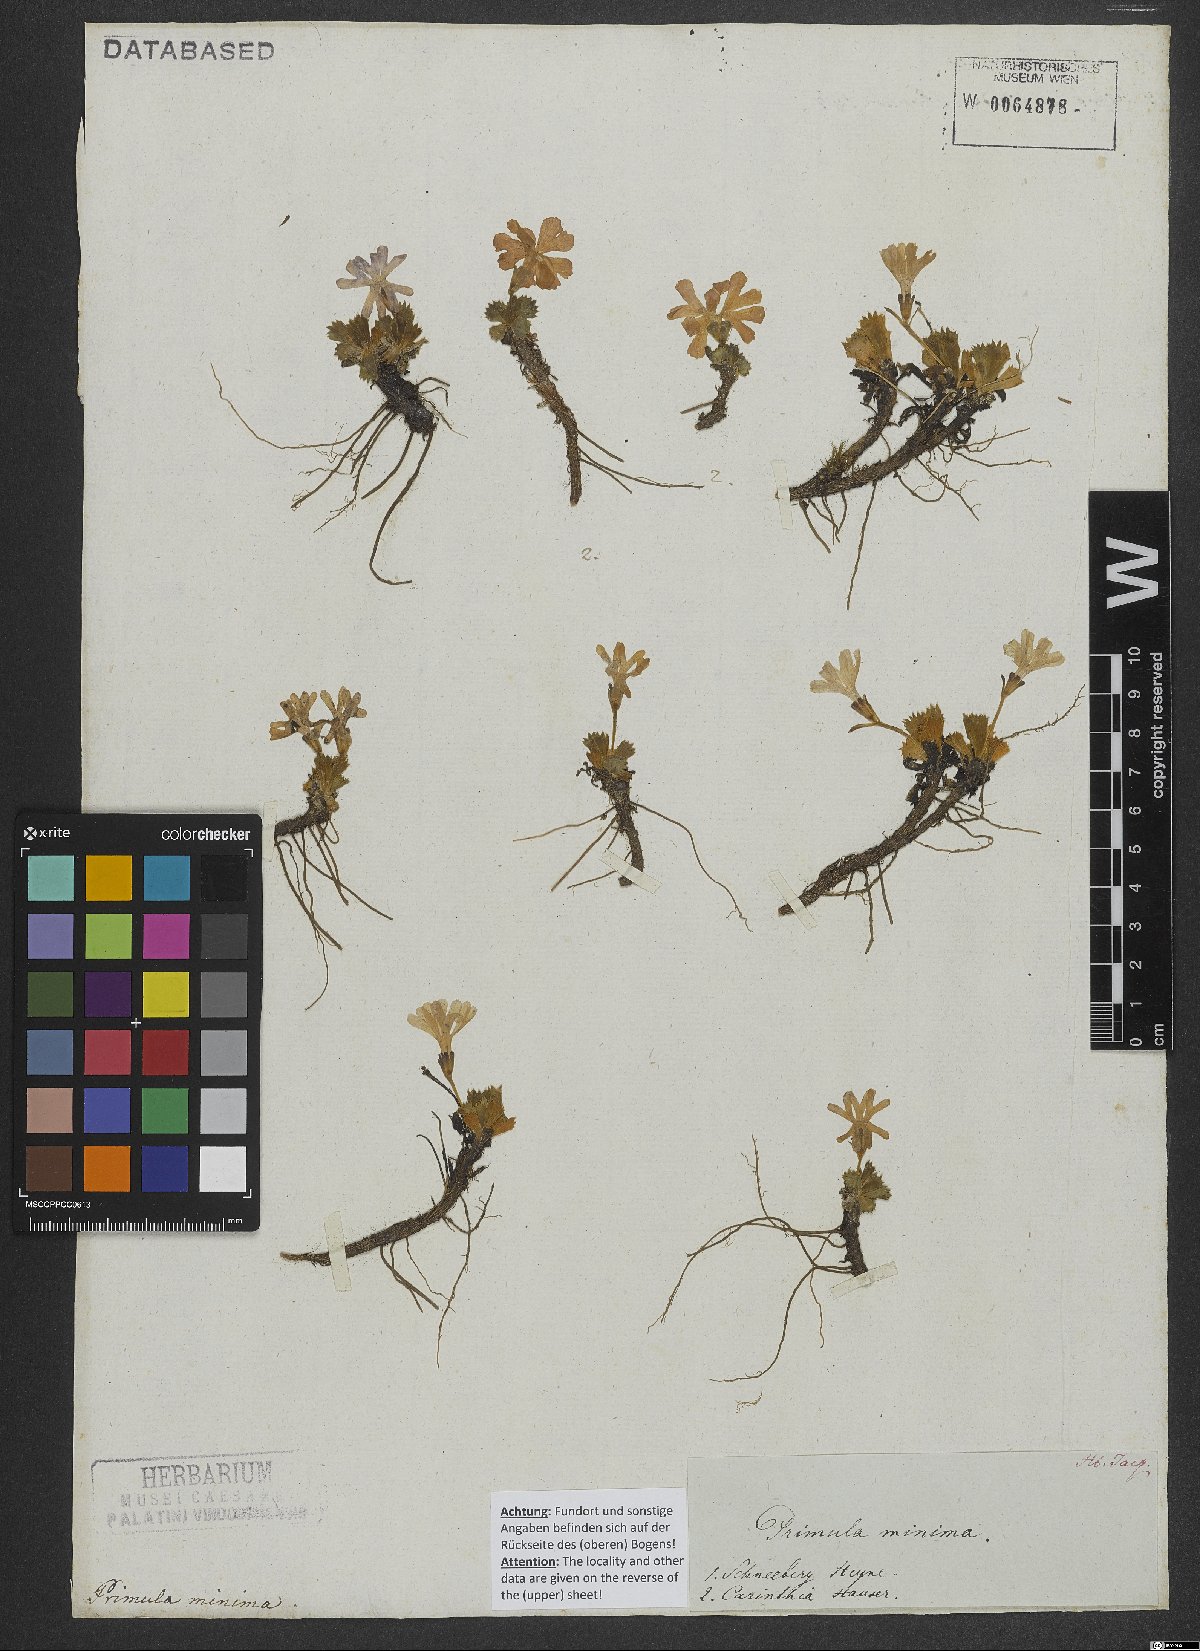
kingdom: Plantae
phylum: Tracheophyta
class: Magnoliopsida
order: Ericales
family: Primulaceae
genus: Primula
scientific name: Primula minima
